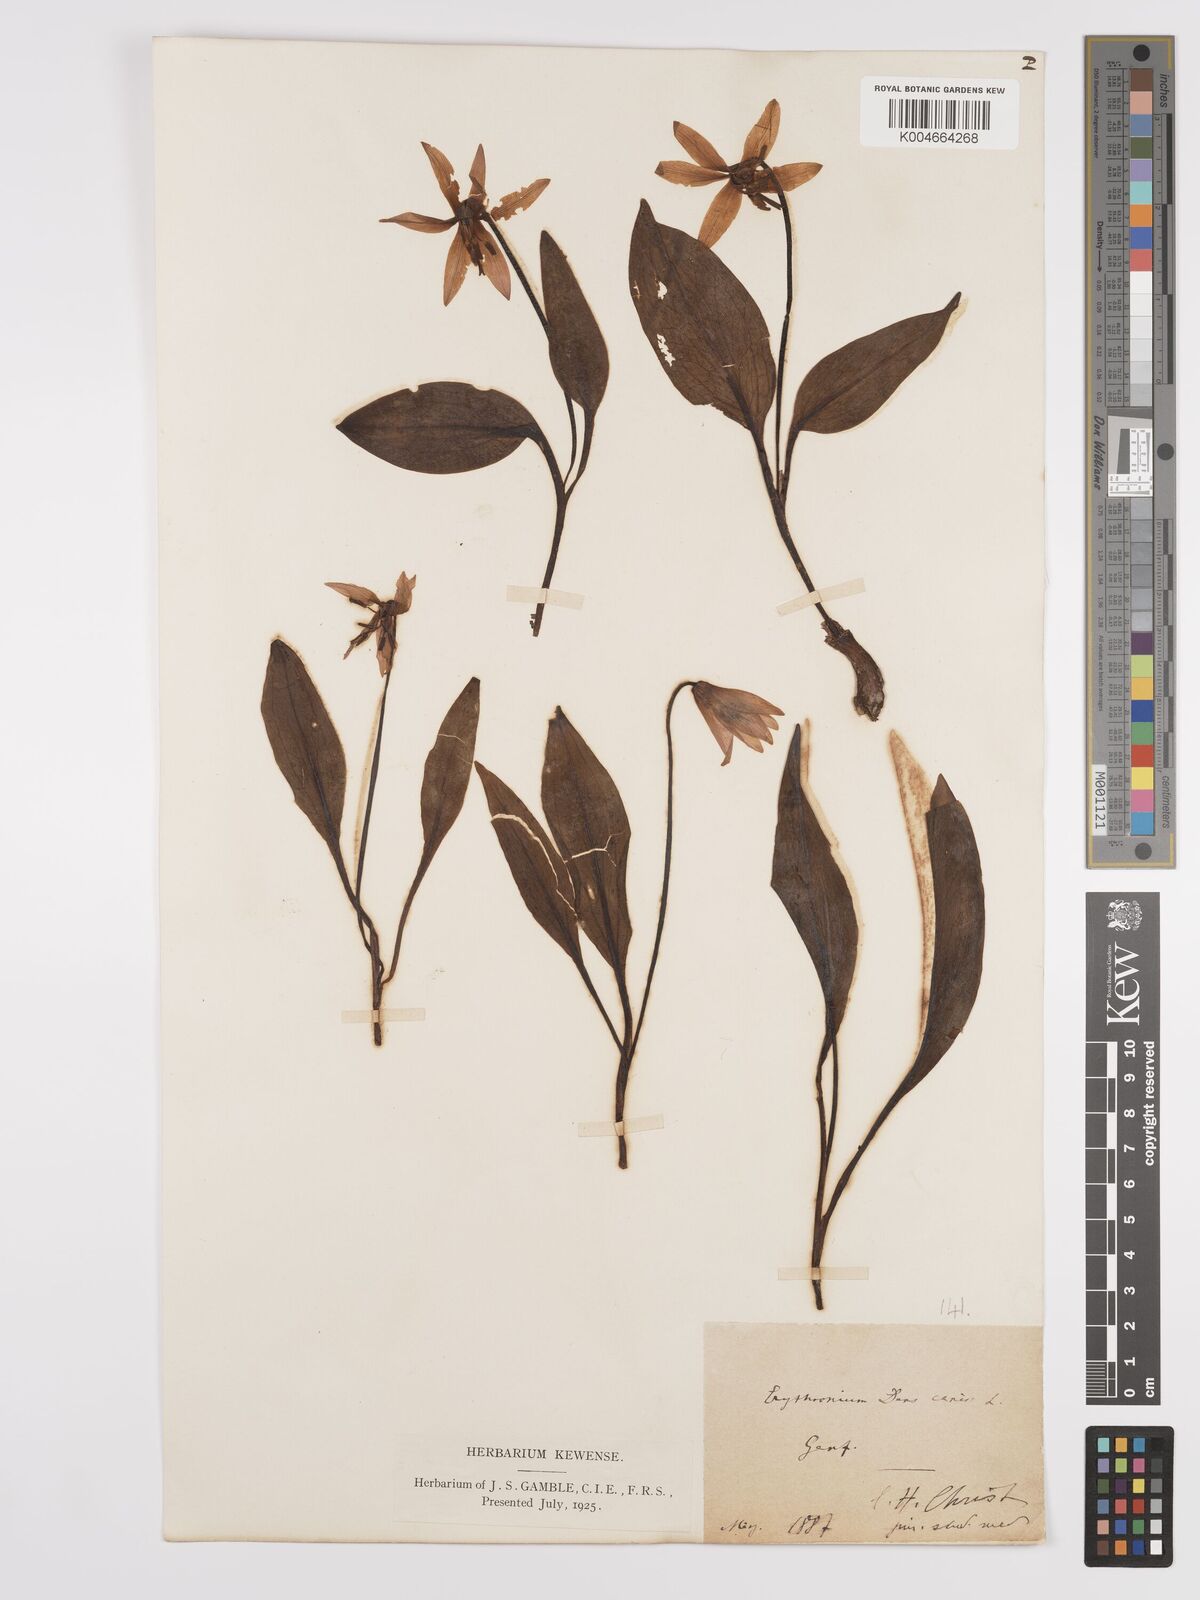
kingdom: Plantae
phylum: Tracheophyta
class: Liliopsida
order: Liliales
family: Liliaceae
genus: Erythronium
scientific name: Erythronium dens-canis
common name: Dog's-tooth-violet
